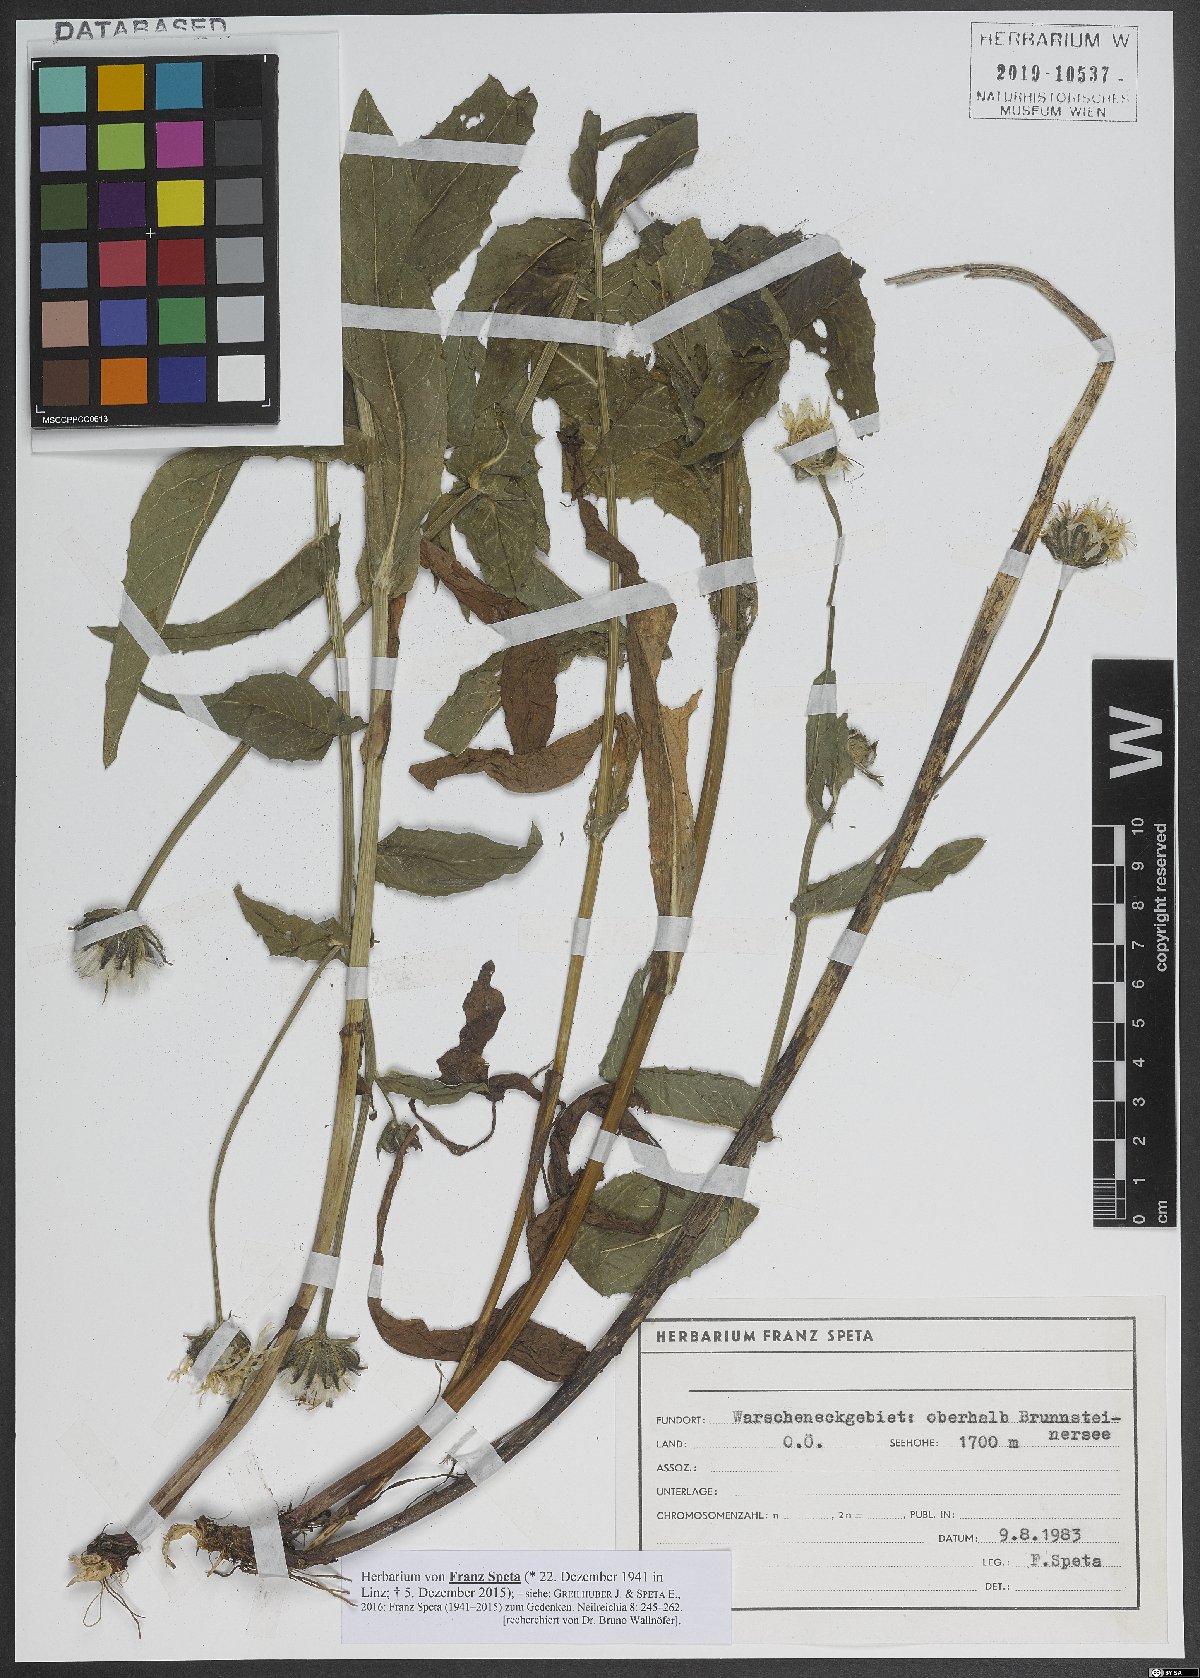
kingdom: Plantae
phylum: Tracheophyta
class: Magnoliopsida
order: Asterales
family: Asteraceae
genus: Crepis
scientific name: Crepis pyrenaica
